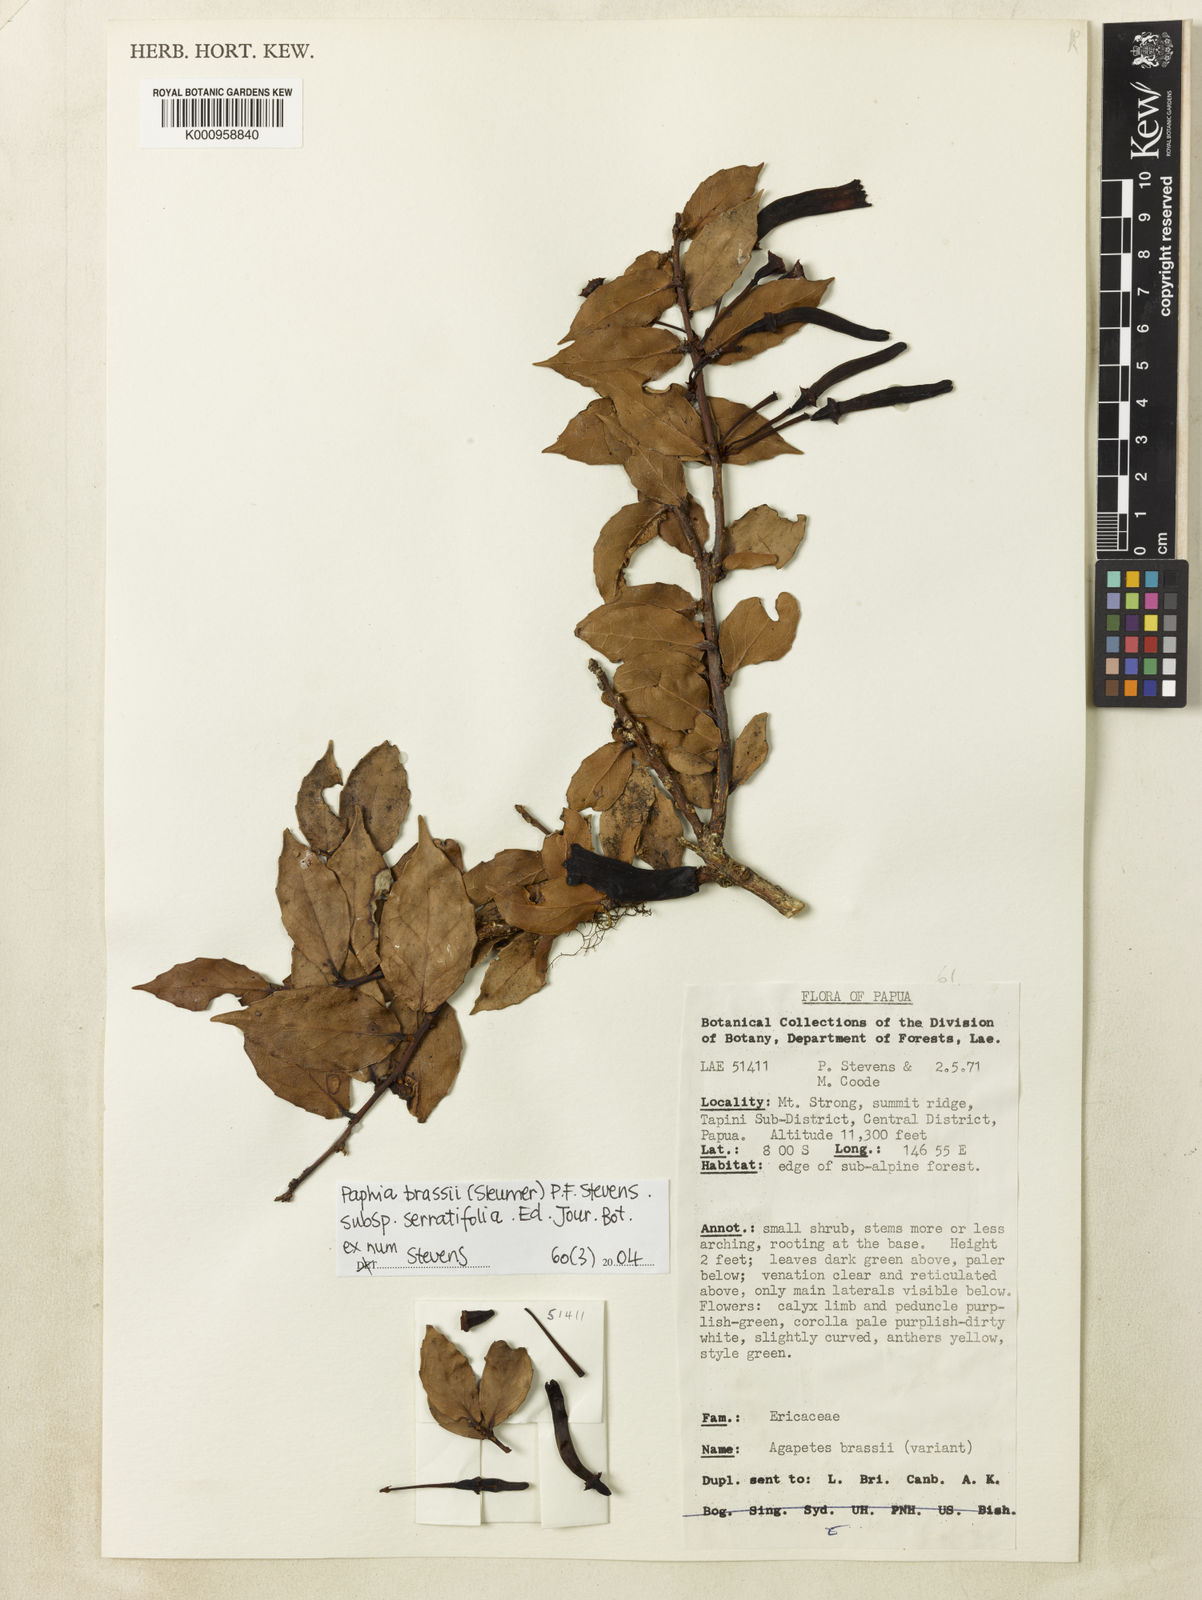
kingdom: Plantae
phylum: Tracheophyta
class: Magnoliopsida
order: Ericales
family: Ericaceae
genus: Paphia
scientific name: Paphia brassii
